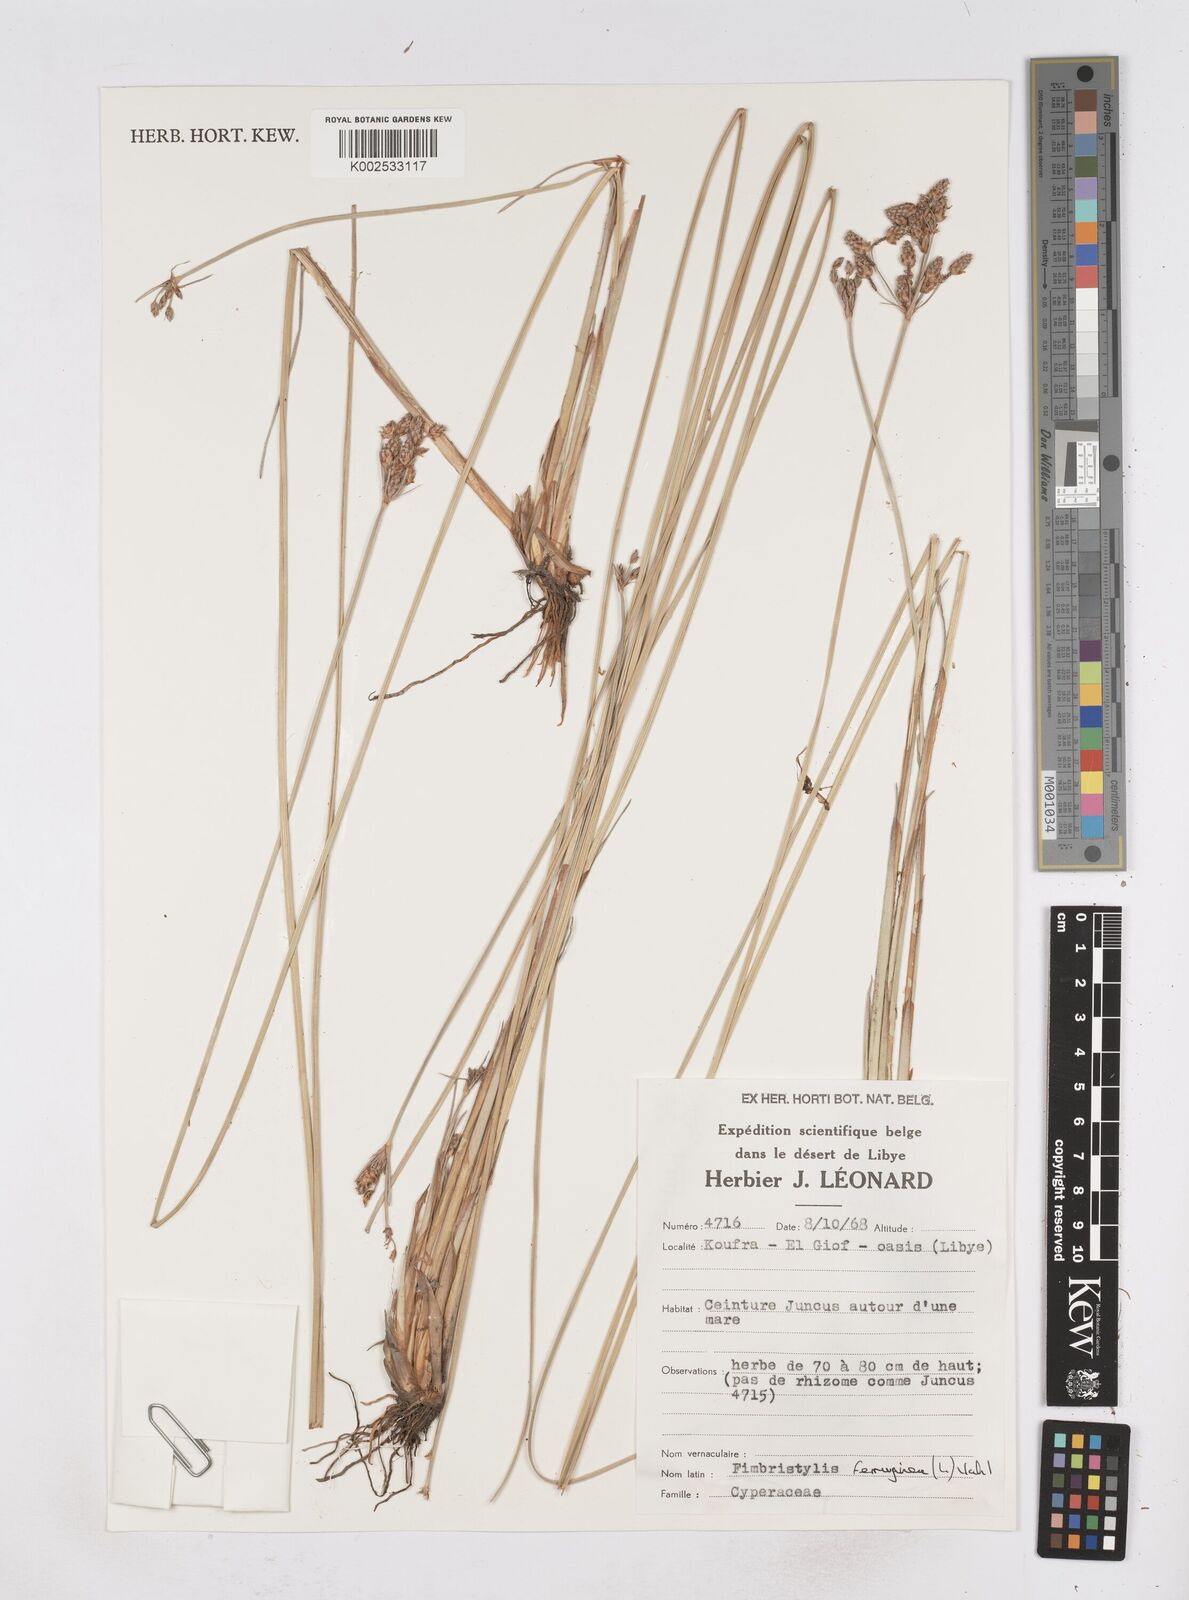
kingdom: Plantae
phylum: Tracheophyta
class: Liliopsida
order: Poales
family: Cyperaceae
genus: Fimbristylis
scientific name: Fimbristylis ferruginea
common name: West indian fimbry
